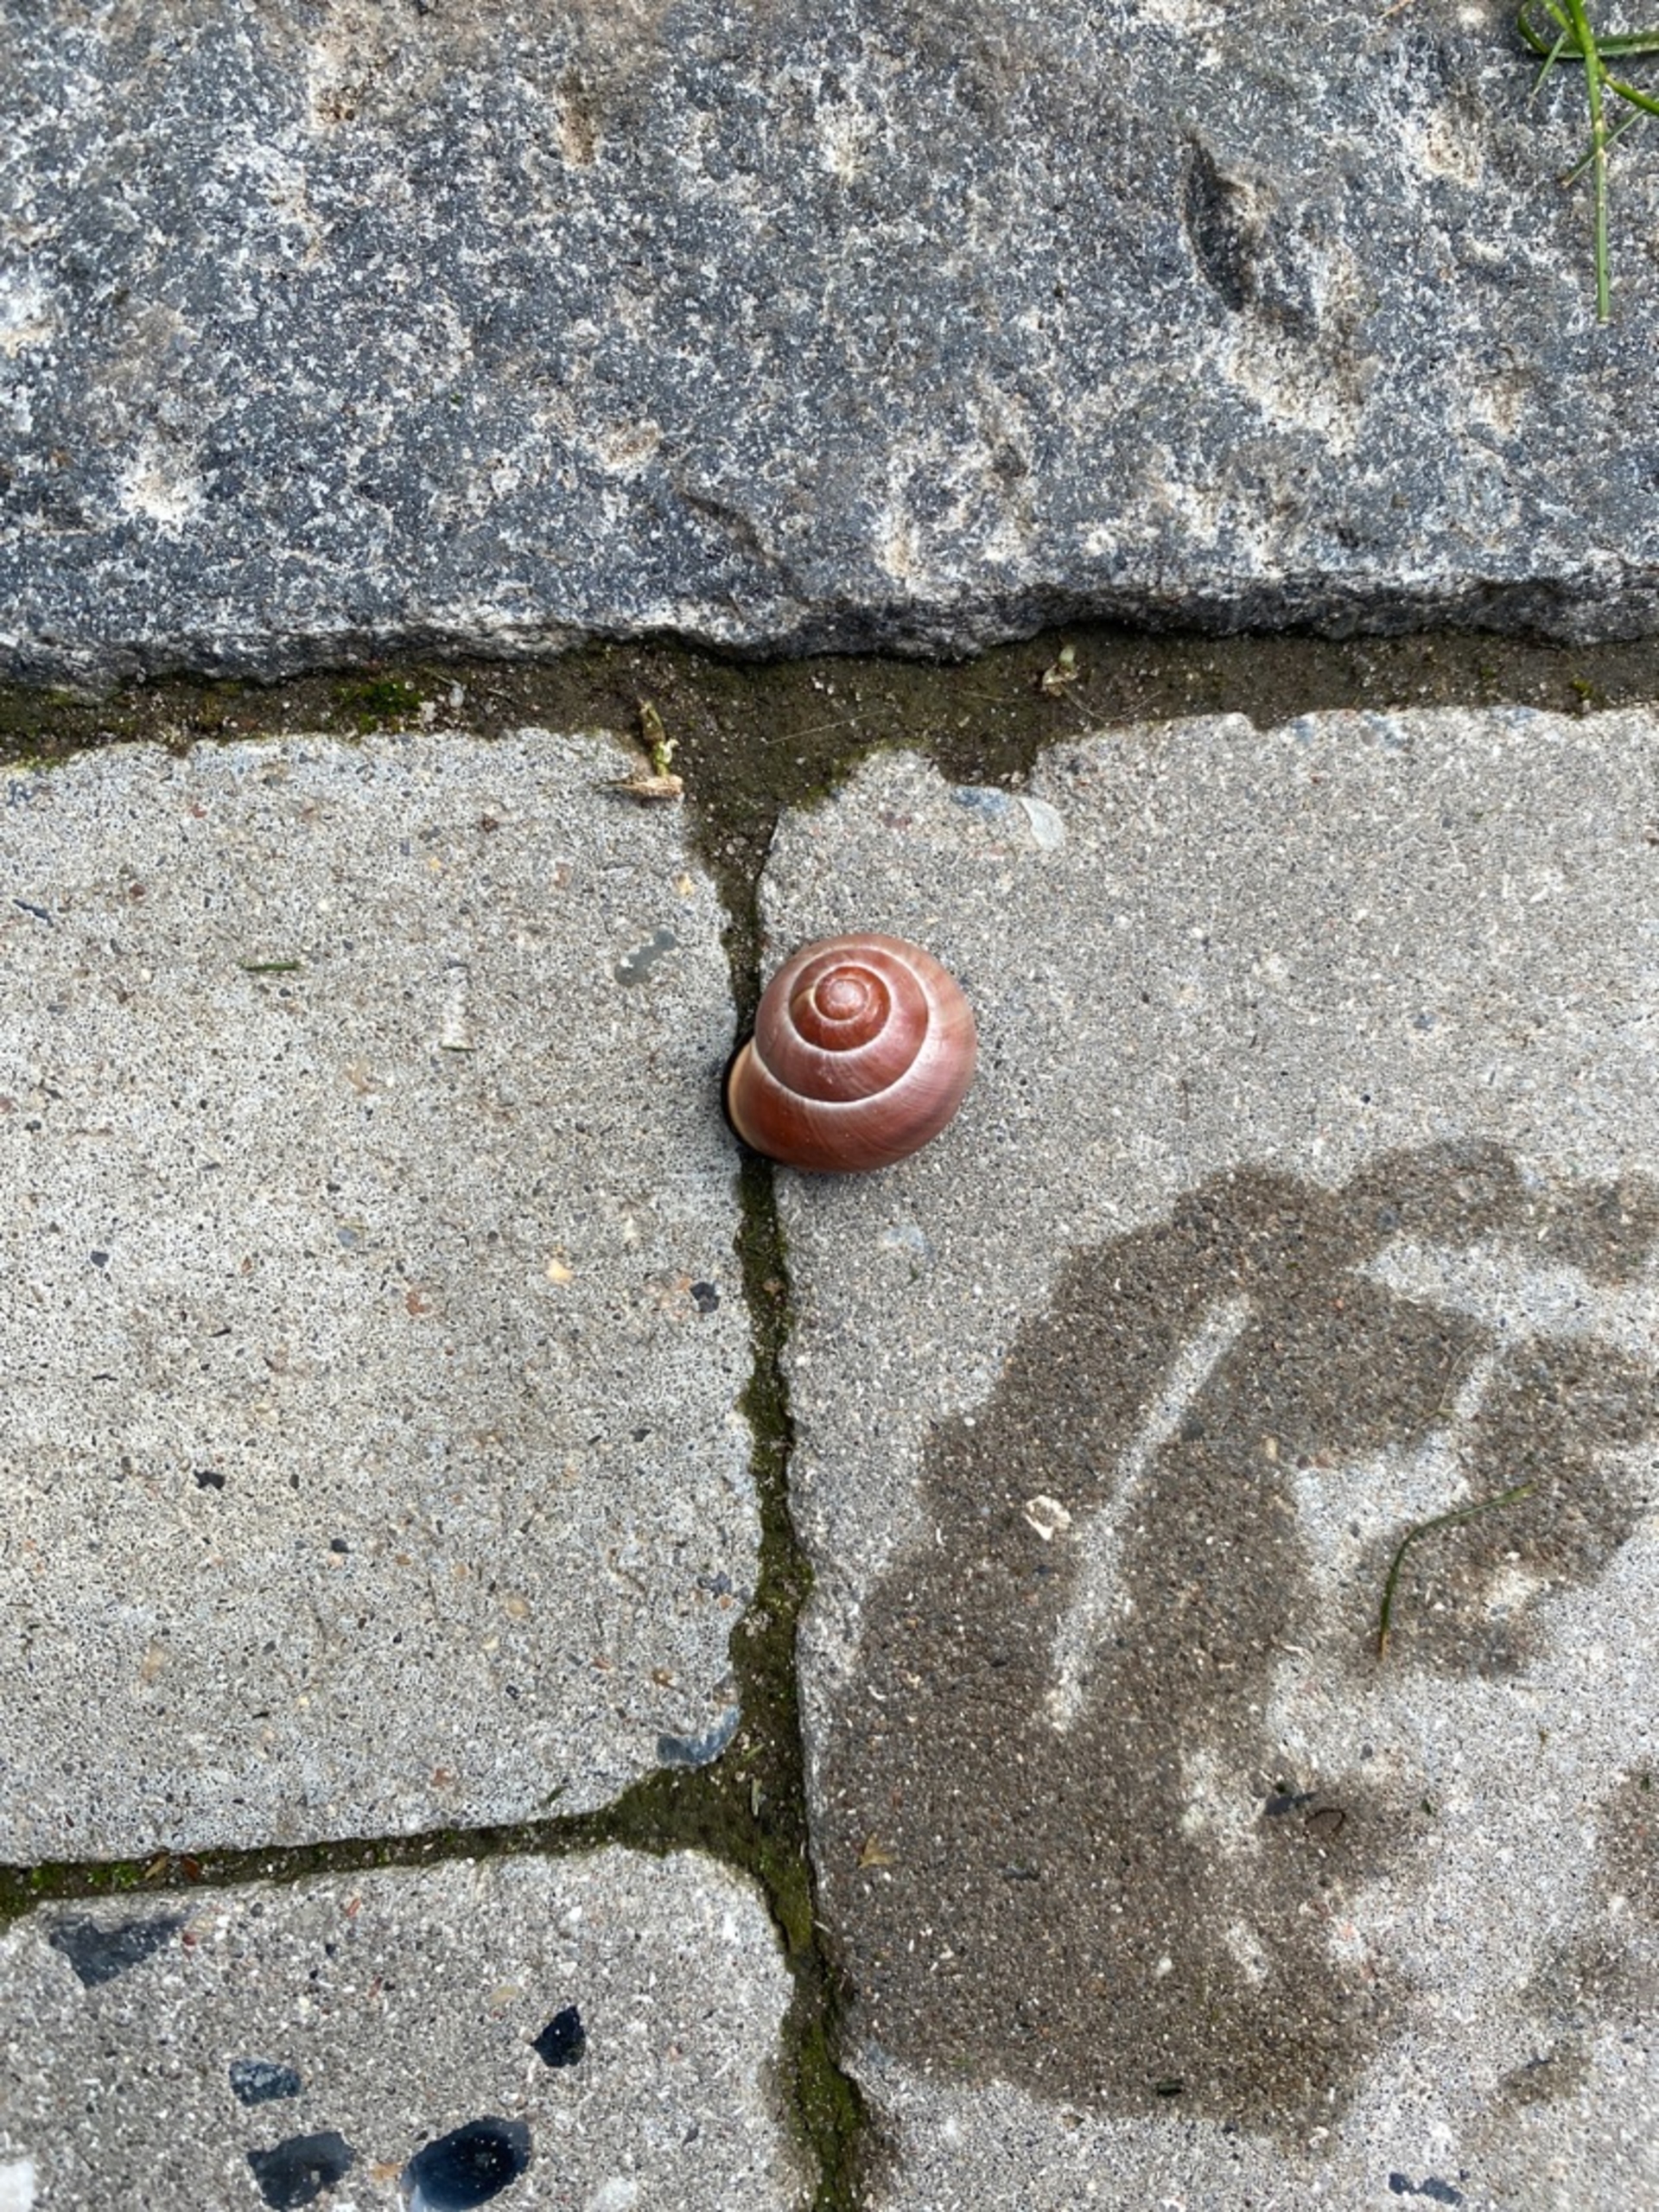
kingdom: Animalia
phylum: Mollusca
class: Gastropoda
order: Stylommatophora
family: Helicidae
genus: Cepaea
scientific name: Cepaea nemoralis
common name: Lundsnegl
